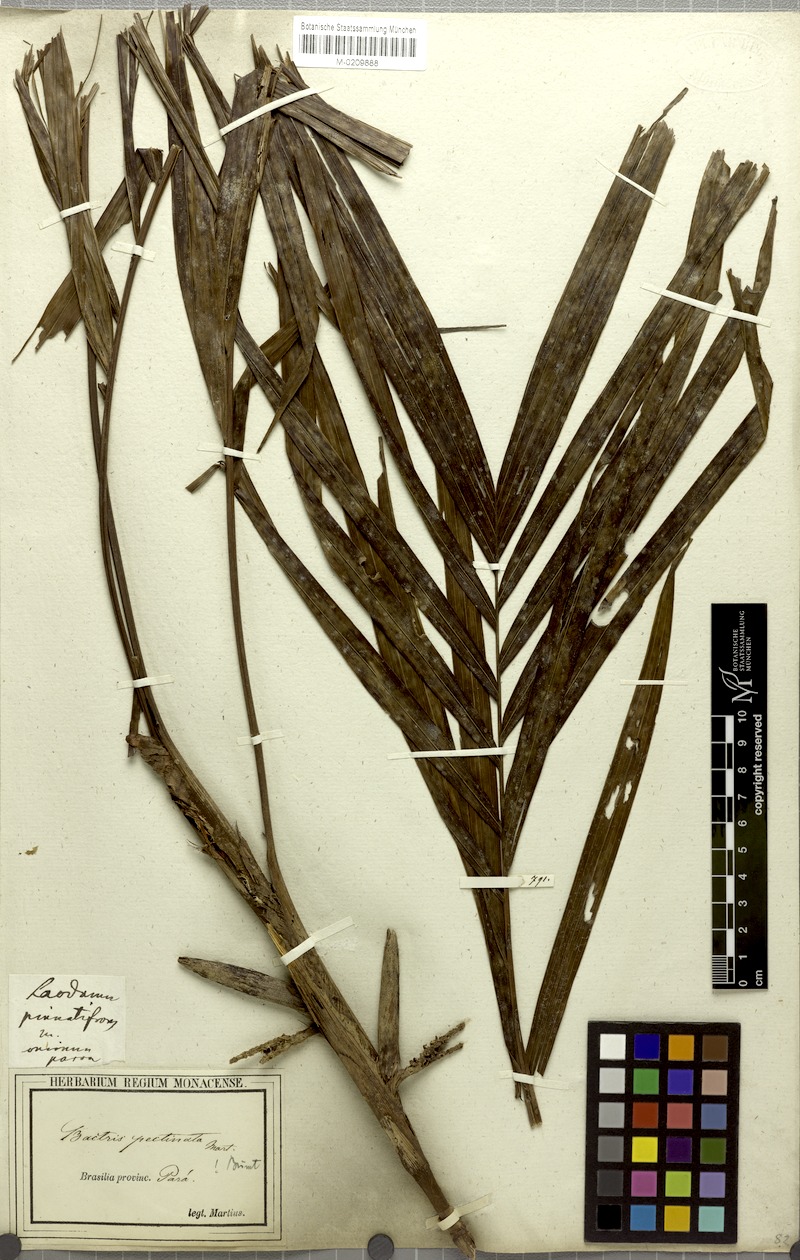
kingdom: Plantae
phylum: Tracheophyta
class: Liliopsida
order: Arecales
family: Arecaceae
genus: Bactris
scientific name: Bactris hirta
